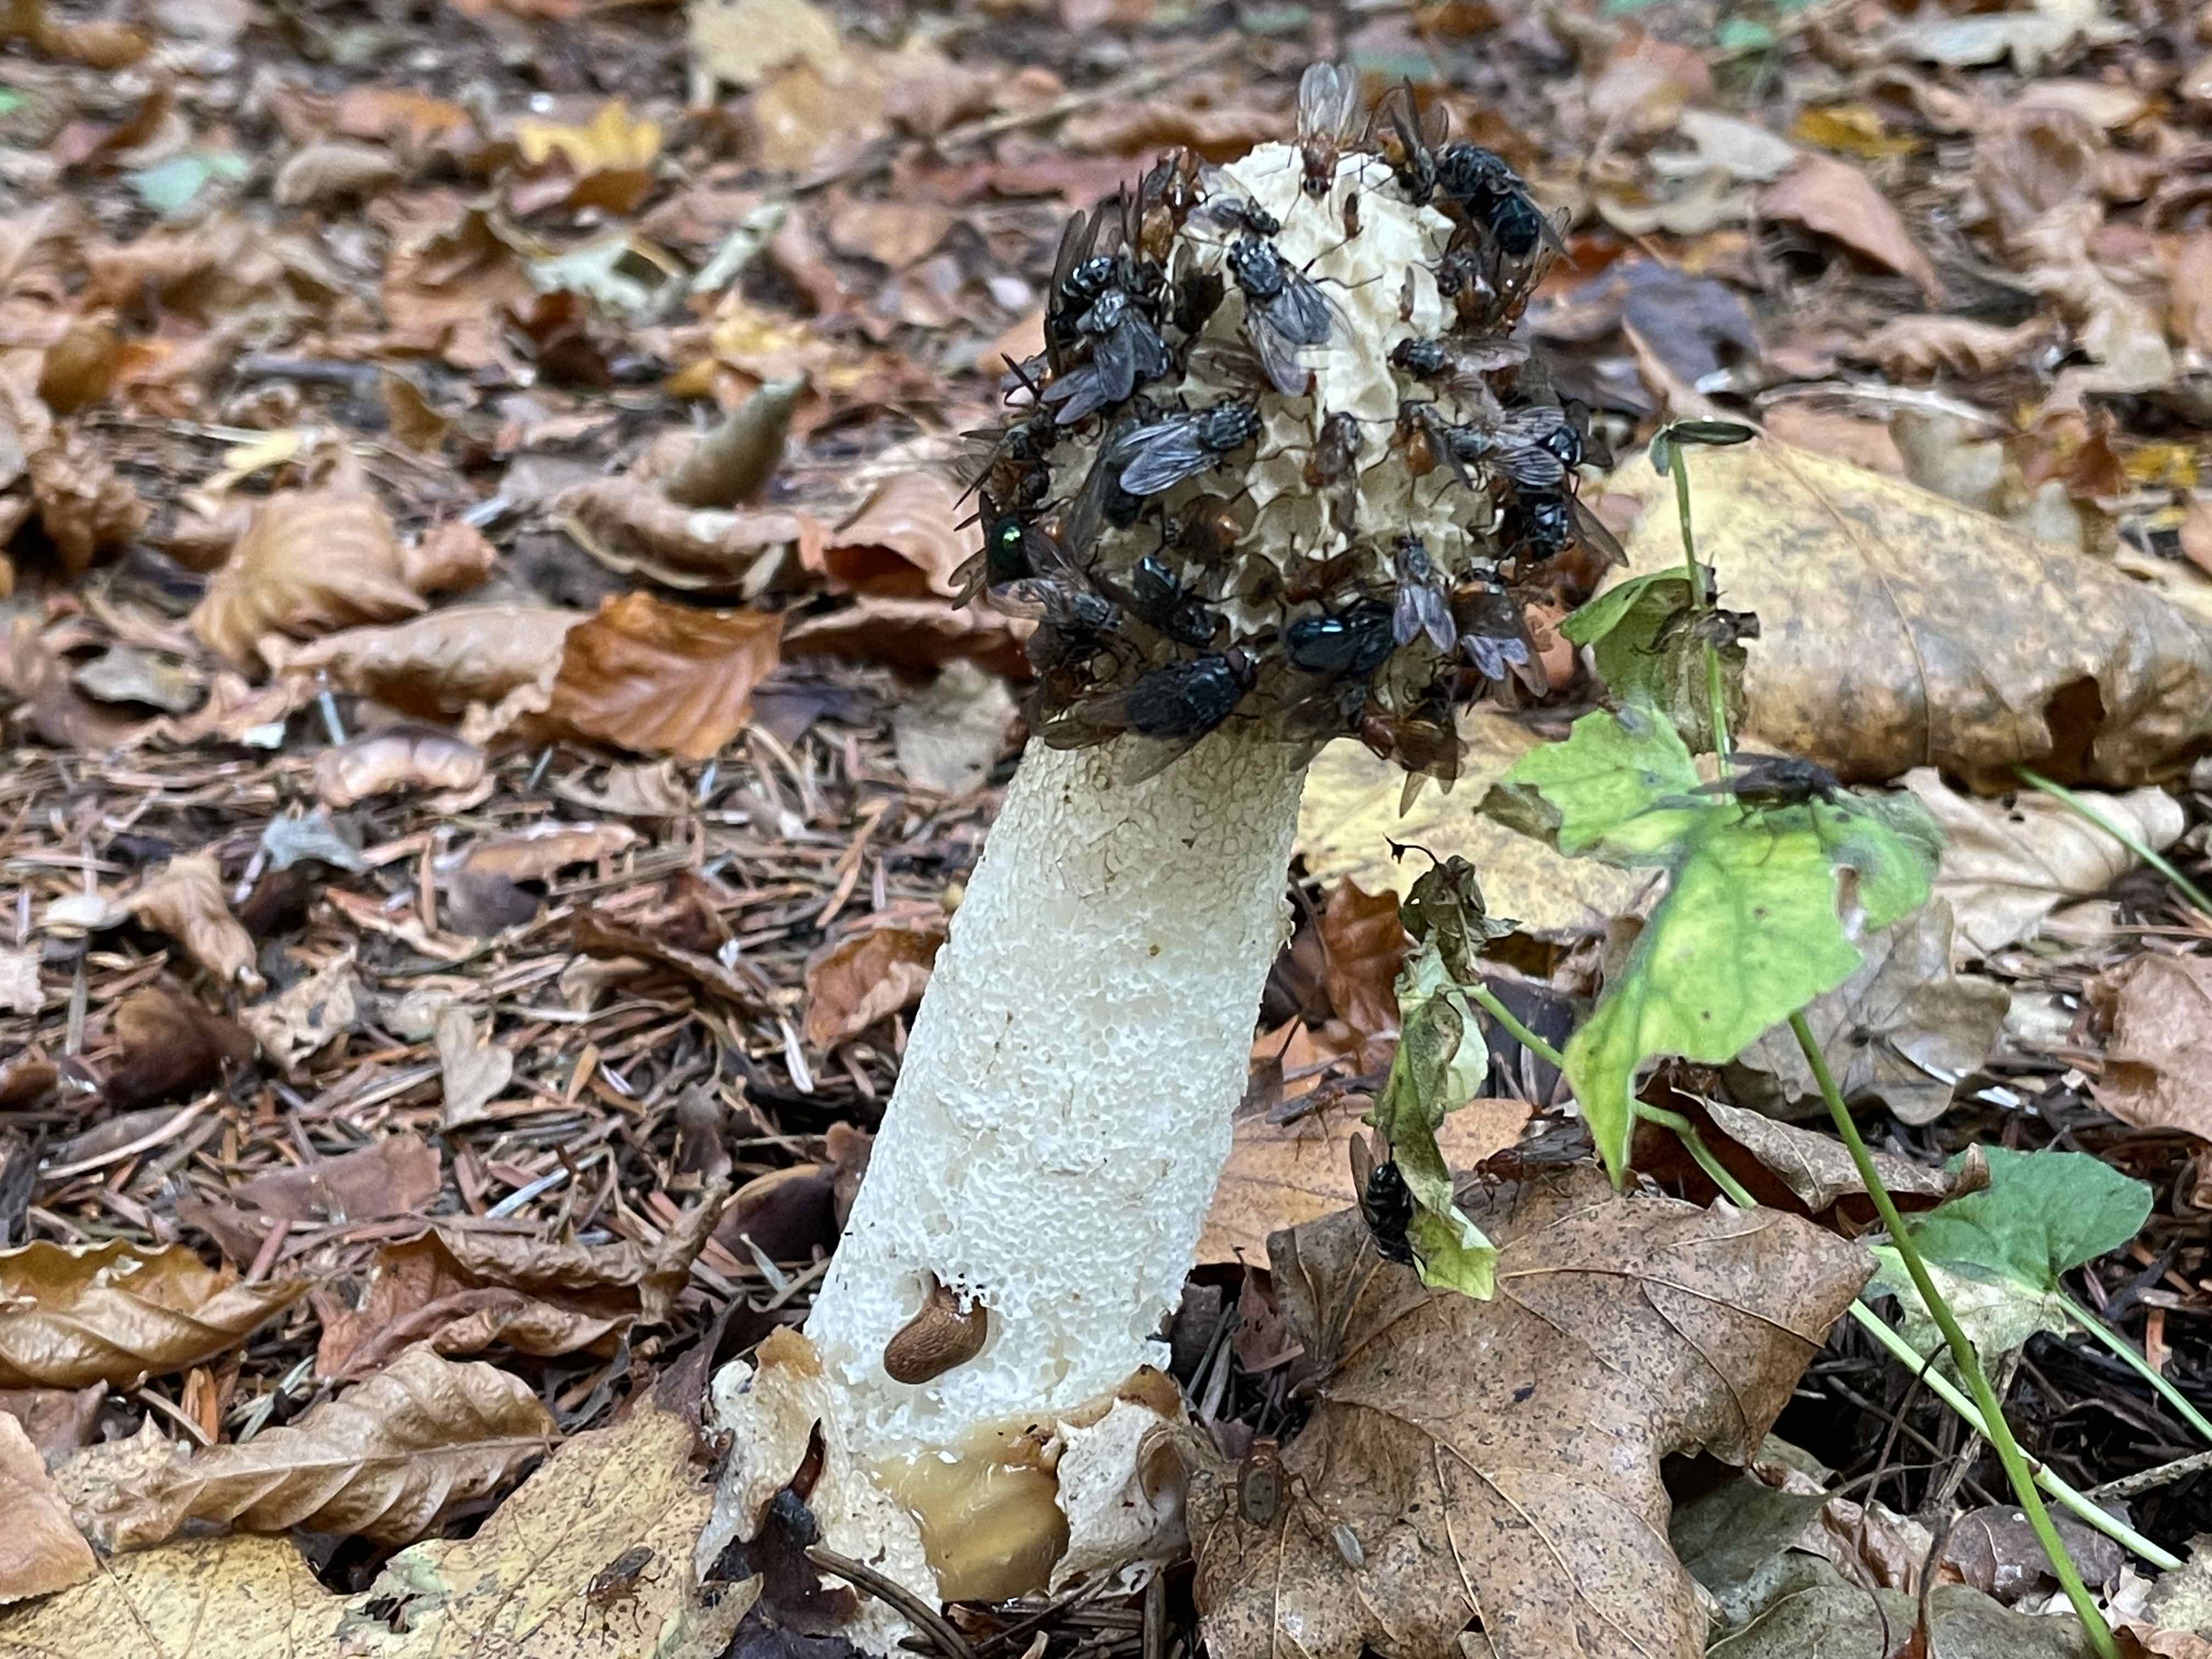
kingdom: Fungi
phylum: Basidiomycota
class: Agaricomycetes
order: Phallales
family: Phallaceae
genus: Phallus
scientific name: Phallus impudicus
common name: almindelig stinksvamp
